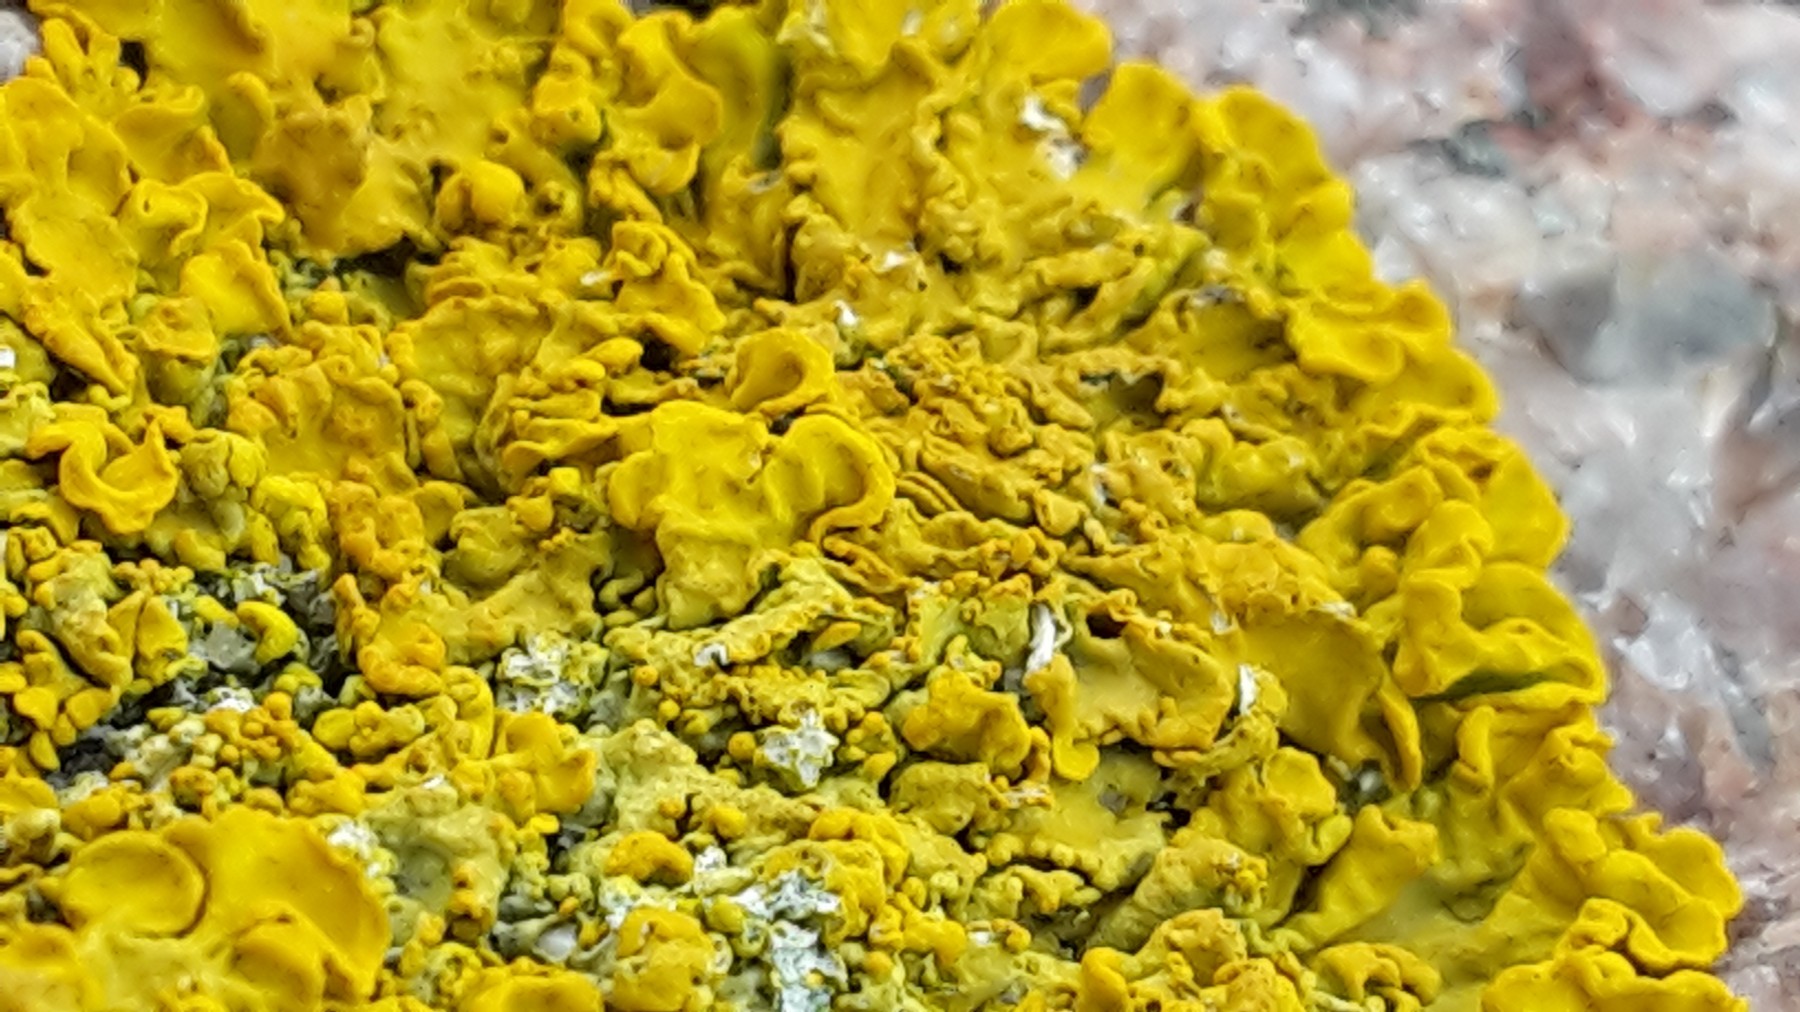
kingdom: Fungi
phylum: Ascomycota
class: Lecanoromycetes
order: Teloschistales
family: Teloschistaceae
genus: Xanthoria
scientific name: Xanthoria aureola
